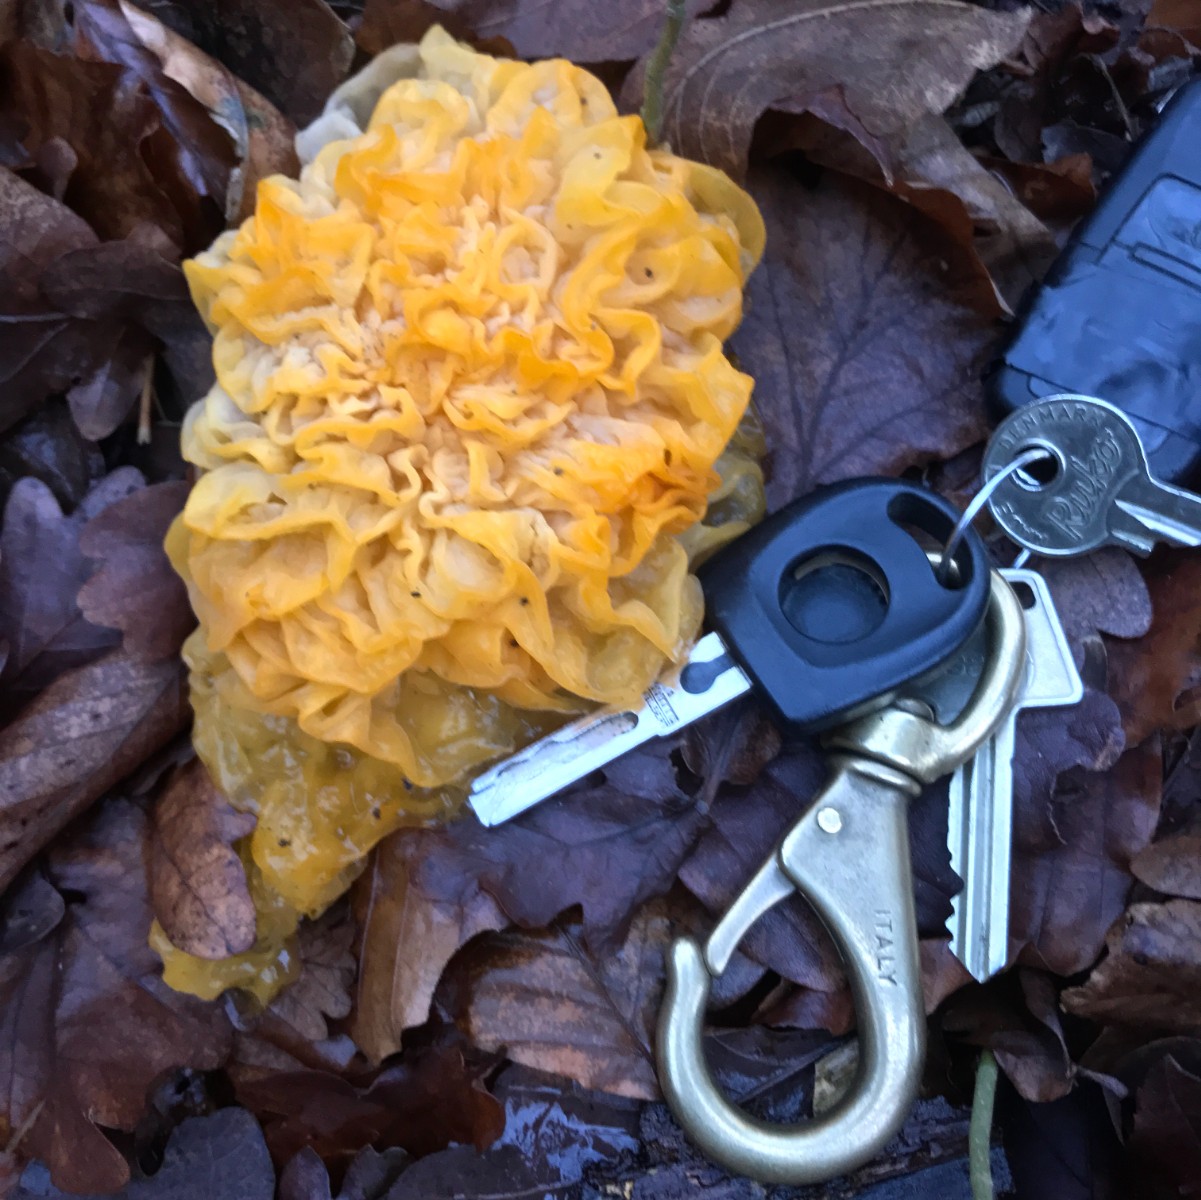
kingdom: Fungi
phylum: Basidiomycota
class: Tremellomycetes
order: Tremellales
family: Tremellaceae
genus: Tremella
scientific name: Tremella mesenterica
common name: gul bævresvamp
